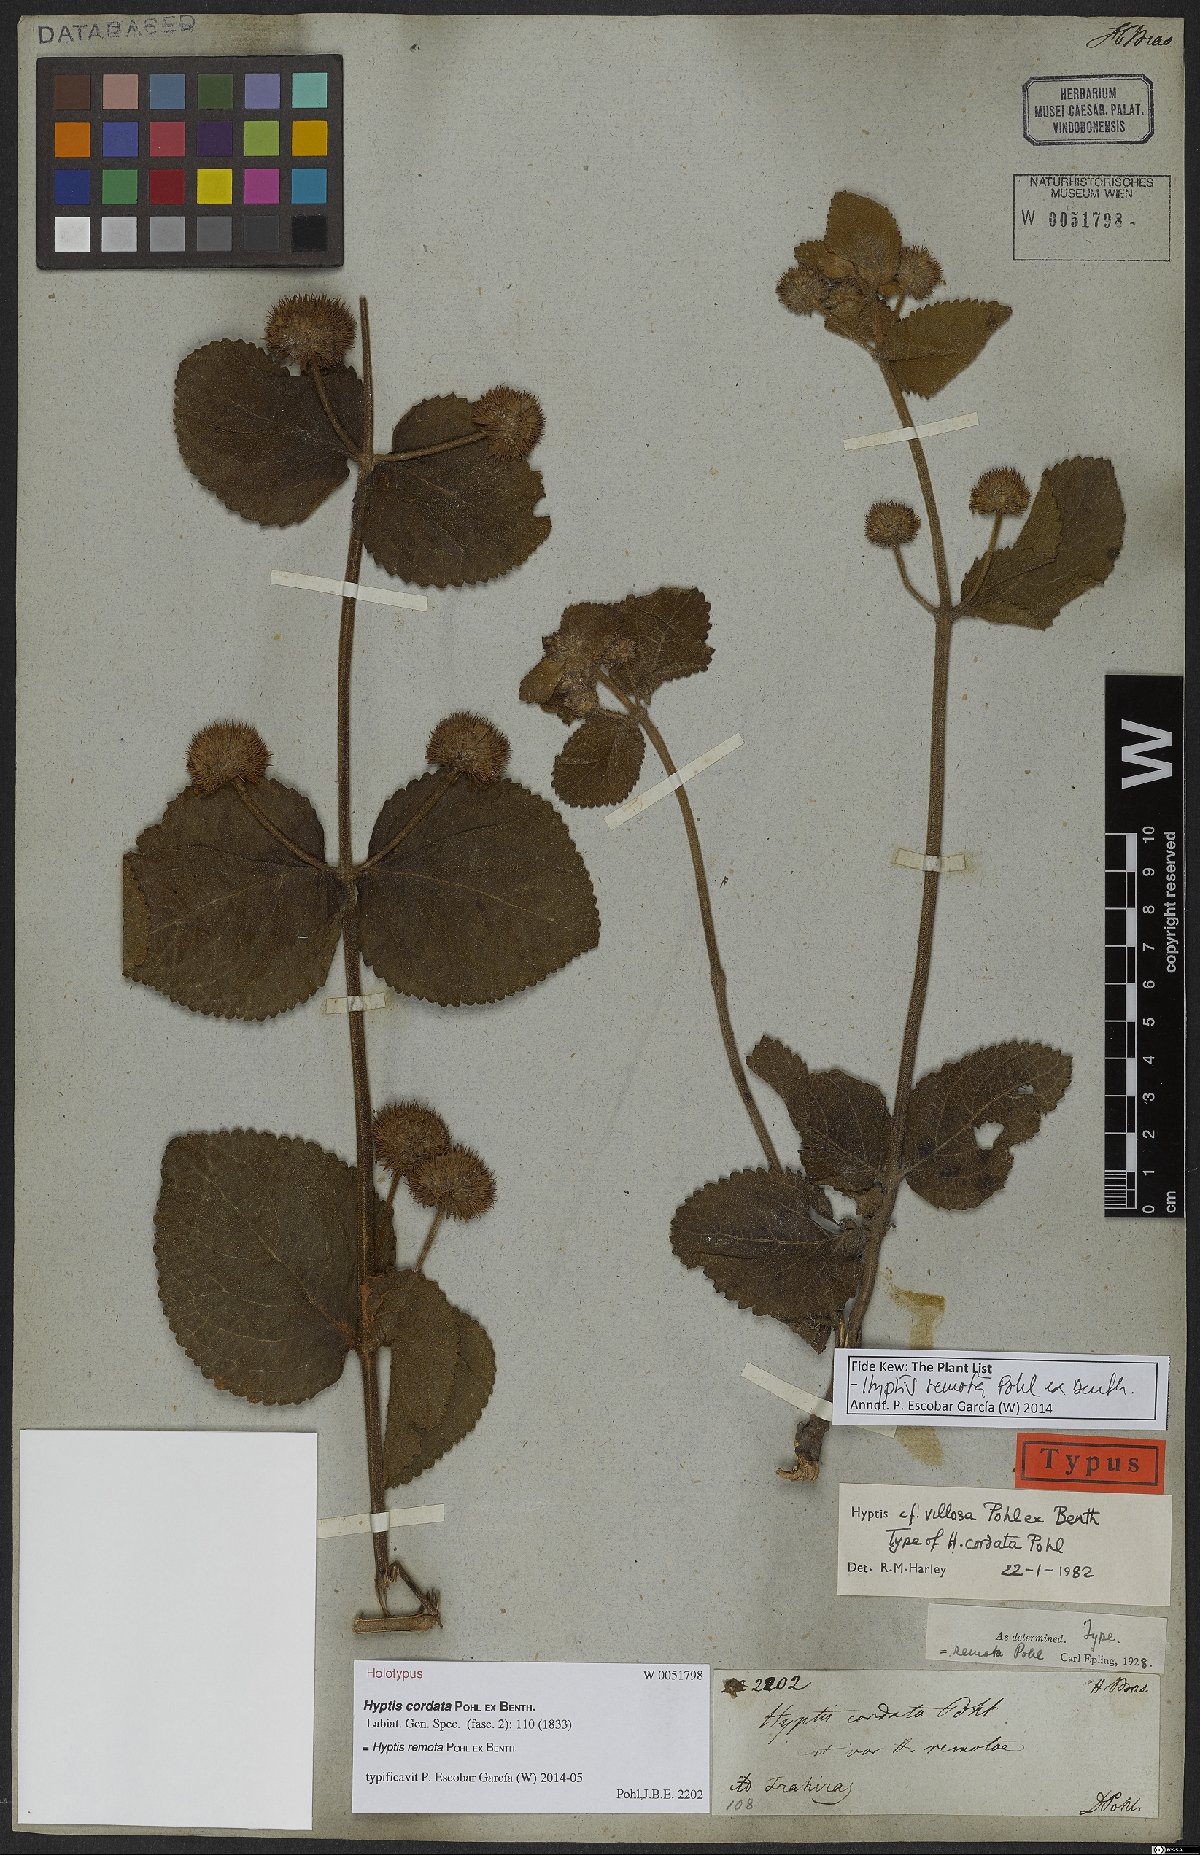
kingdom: Plantae
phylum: Tracheophyta
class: Magnoliopsida
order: Lamiales
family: Lamiaceae
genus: Hyptis
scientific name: Hyptis remota
